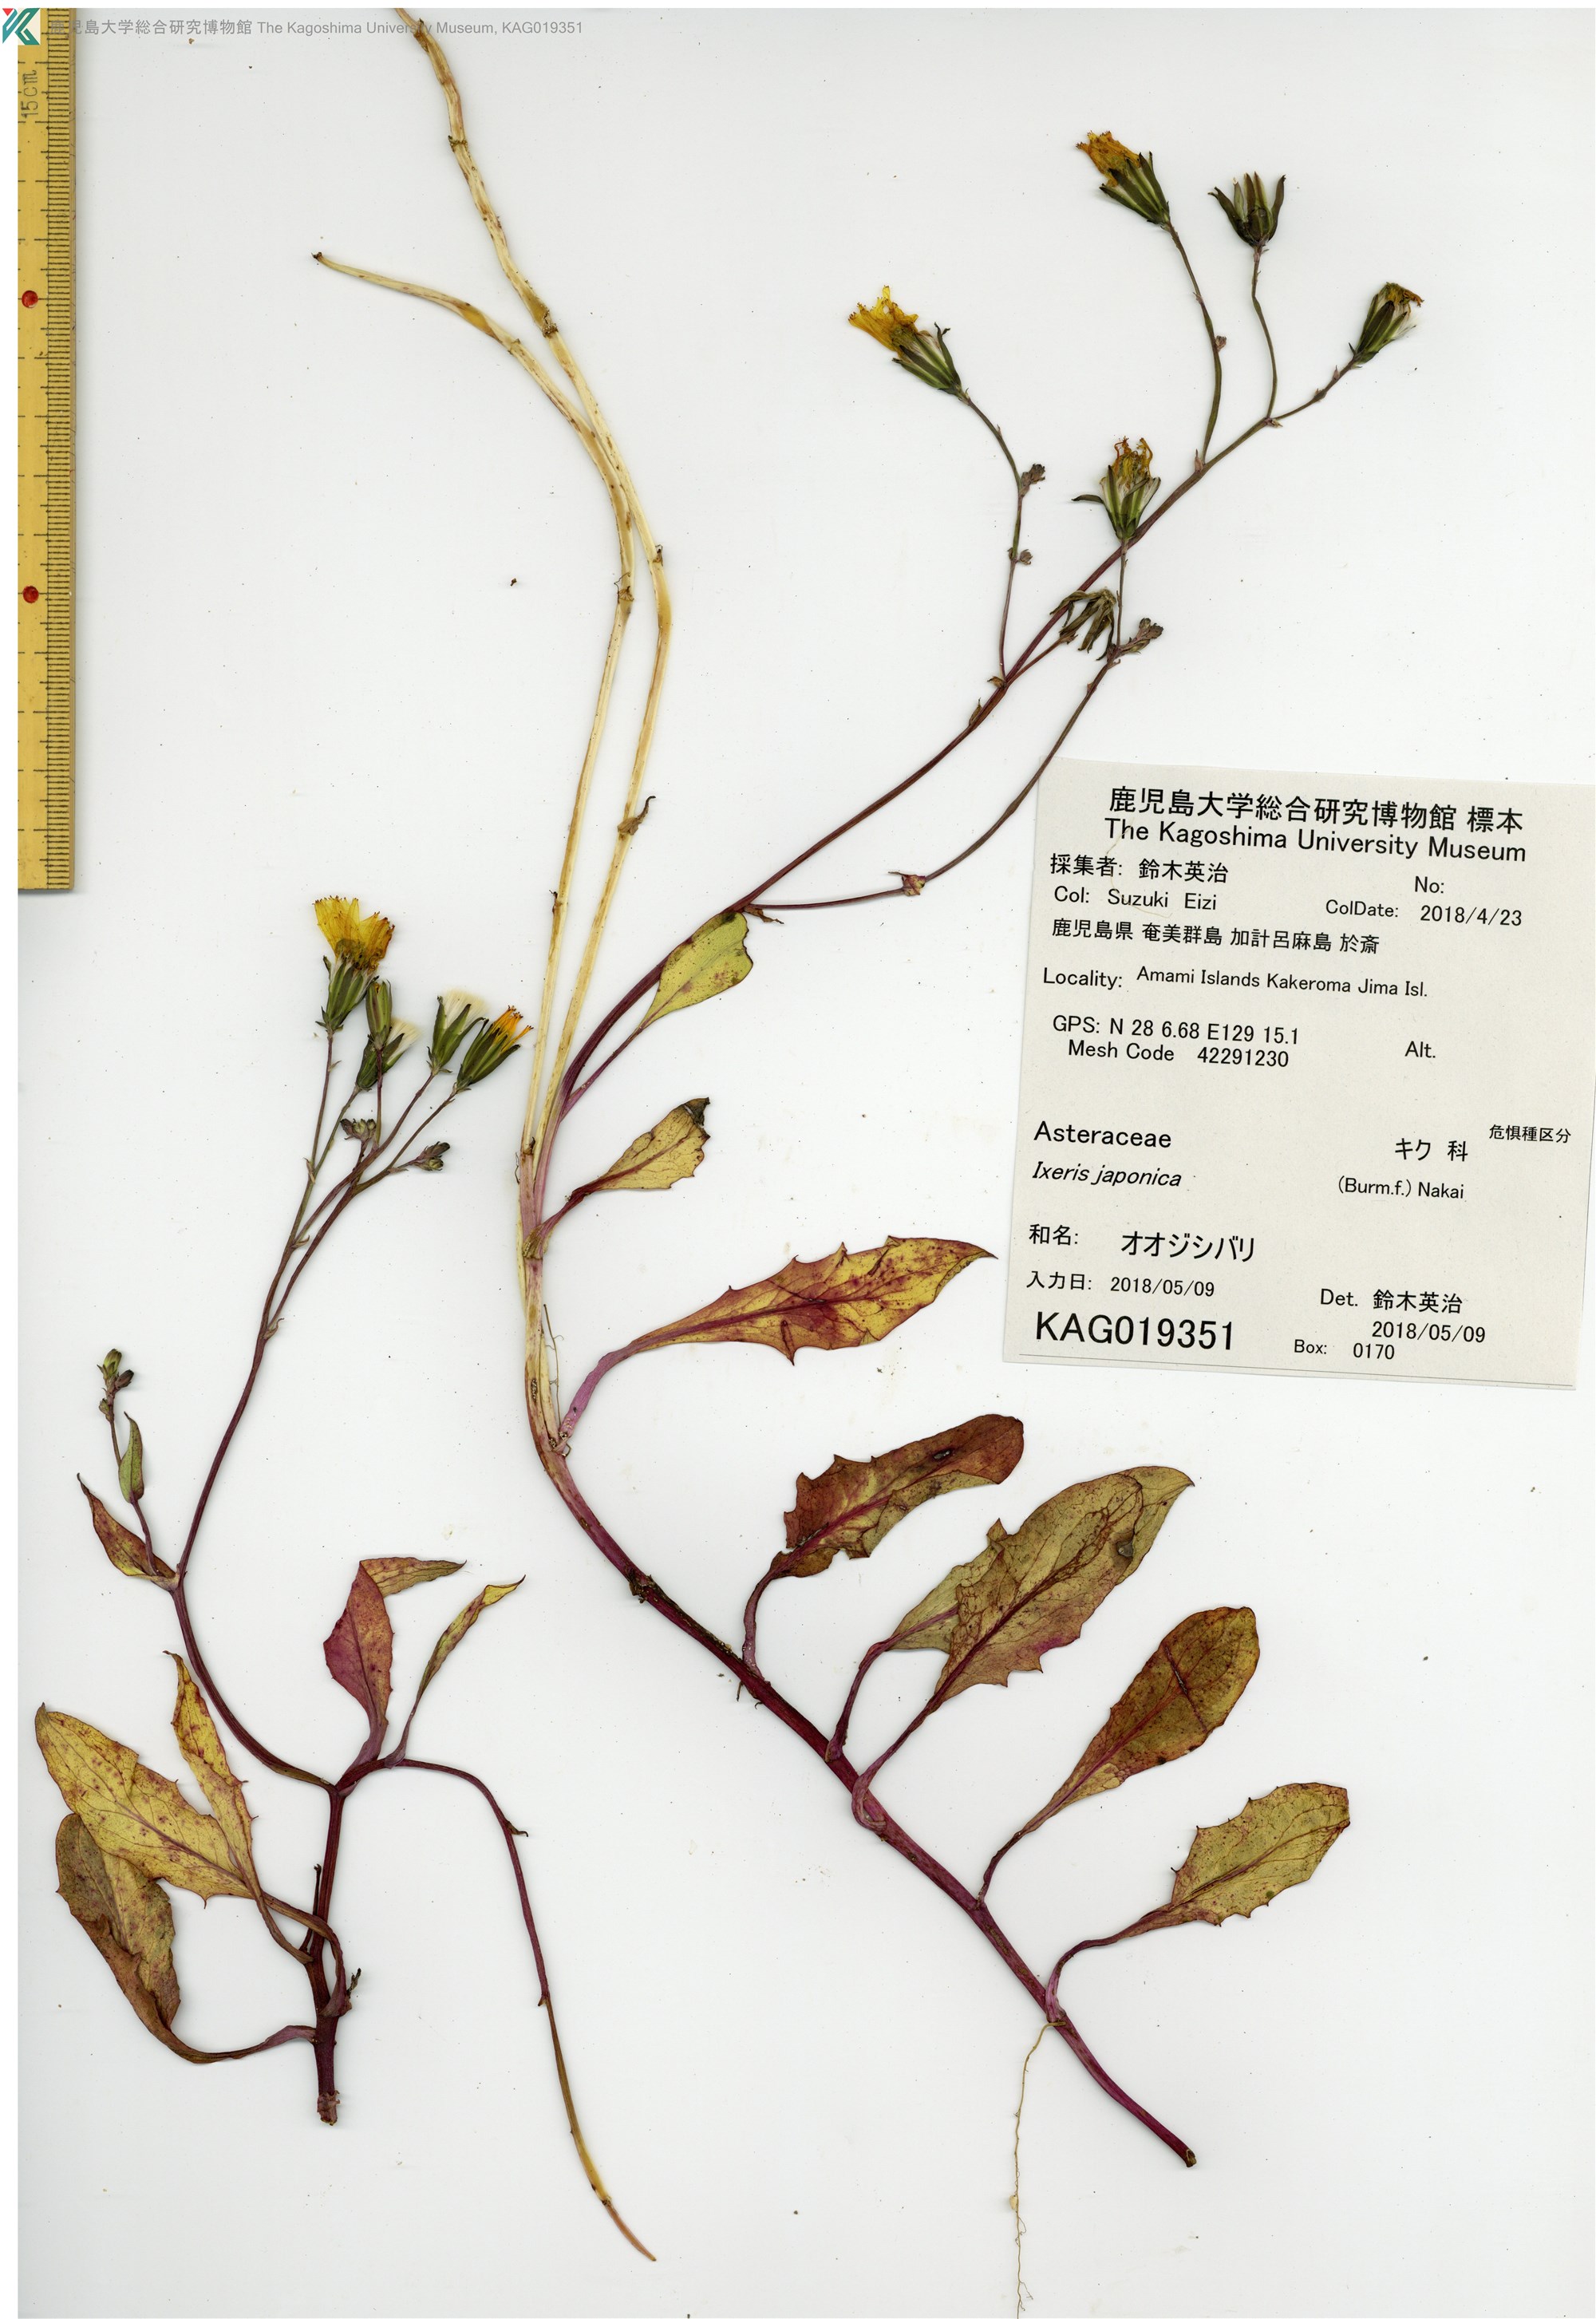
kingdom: Plantae
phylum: Tracheophyta
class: Magnoliopsida
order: Asterales
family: Asteraceae
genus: Ixeris
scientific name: Ixeris japonica
